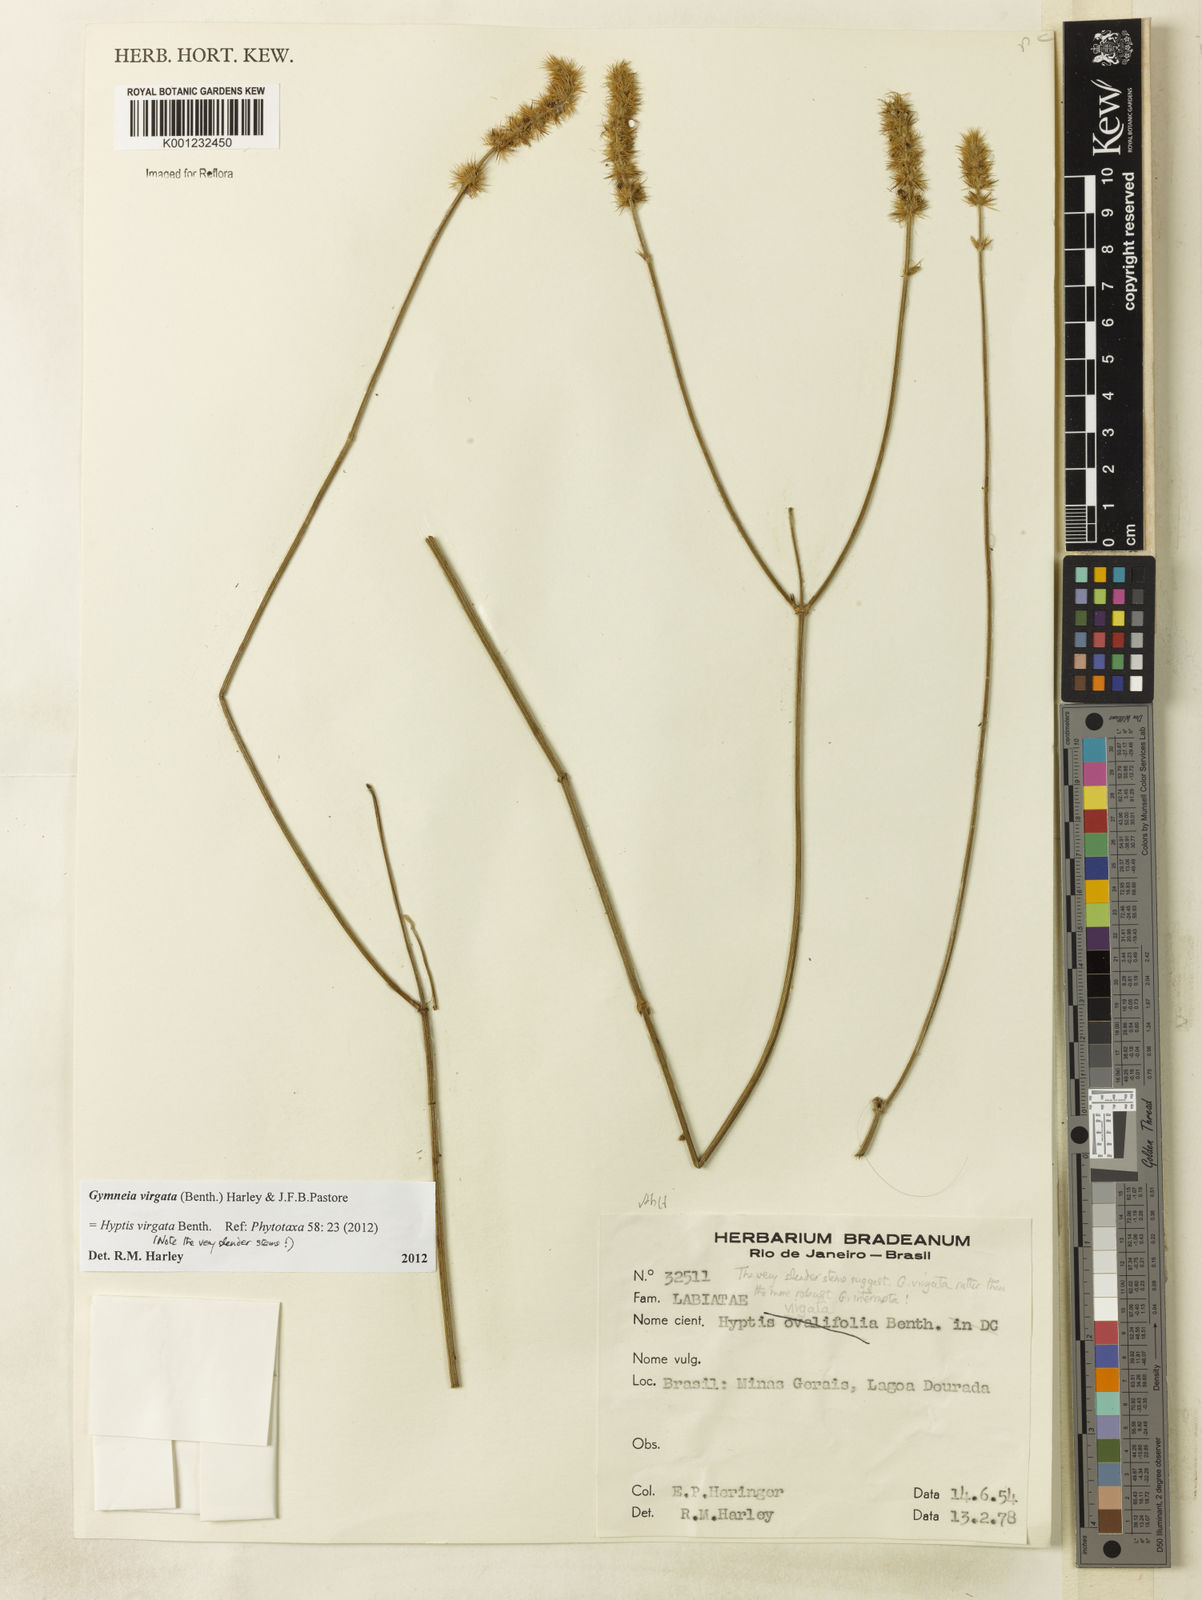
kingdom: Plantae
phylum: Tracheophyta
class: Magnoliopsida
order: Lamiales
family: Lamiaceae
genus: Gymneia
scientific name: Gymneia virgata
